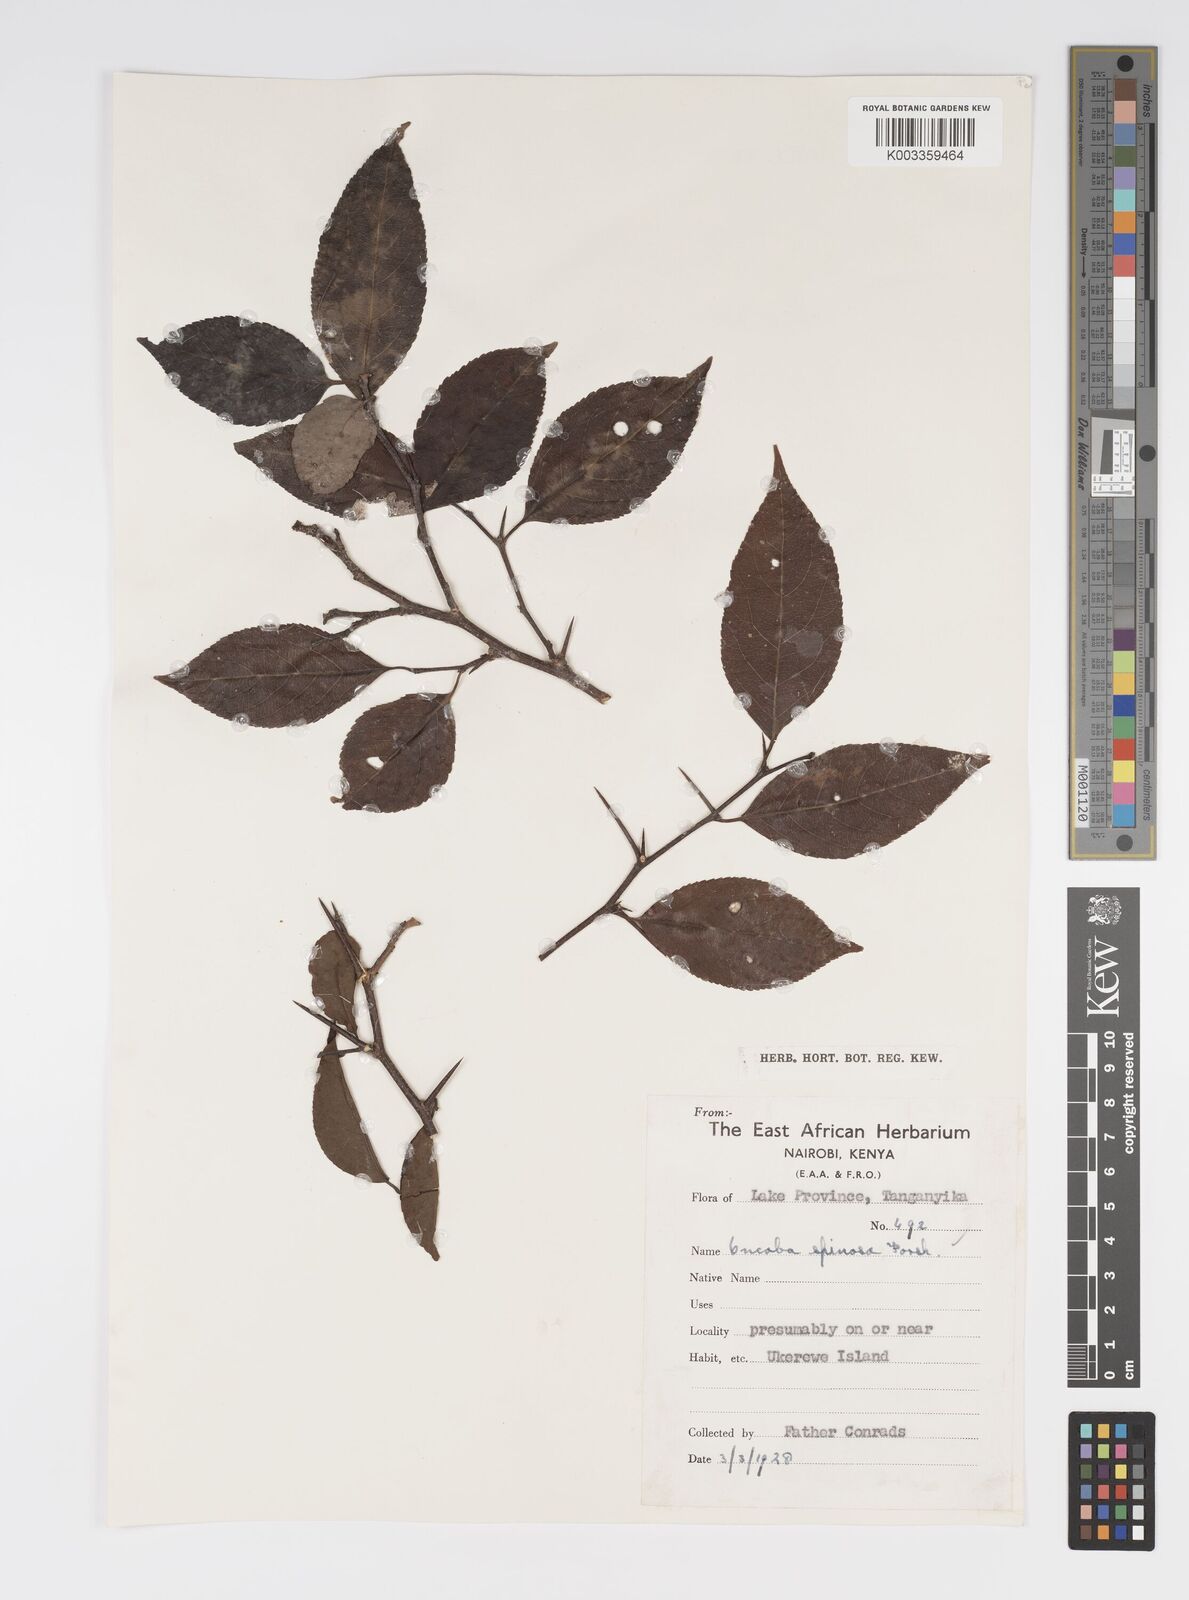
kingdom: Plantae
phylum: Tracheophyta
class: Magnoliopsida
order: Malpighiales
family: Salicaceae
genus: Oncoba
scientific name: Oncoba spinosa
